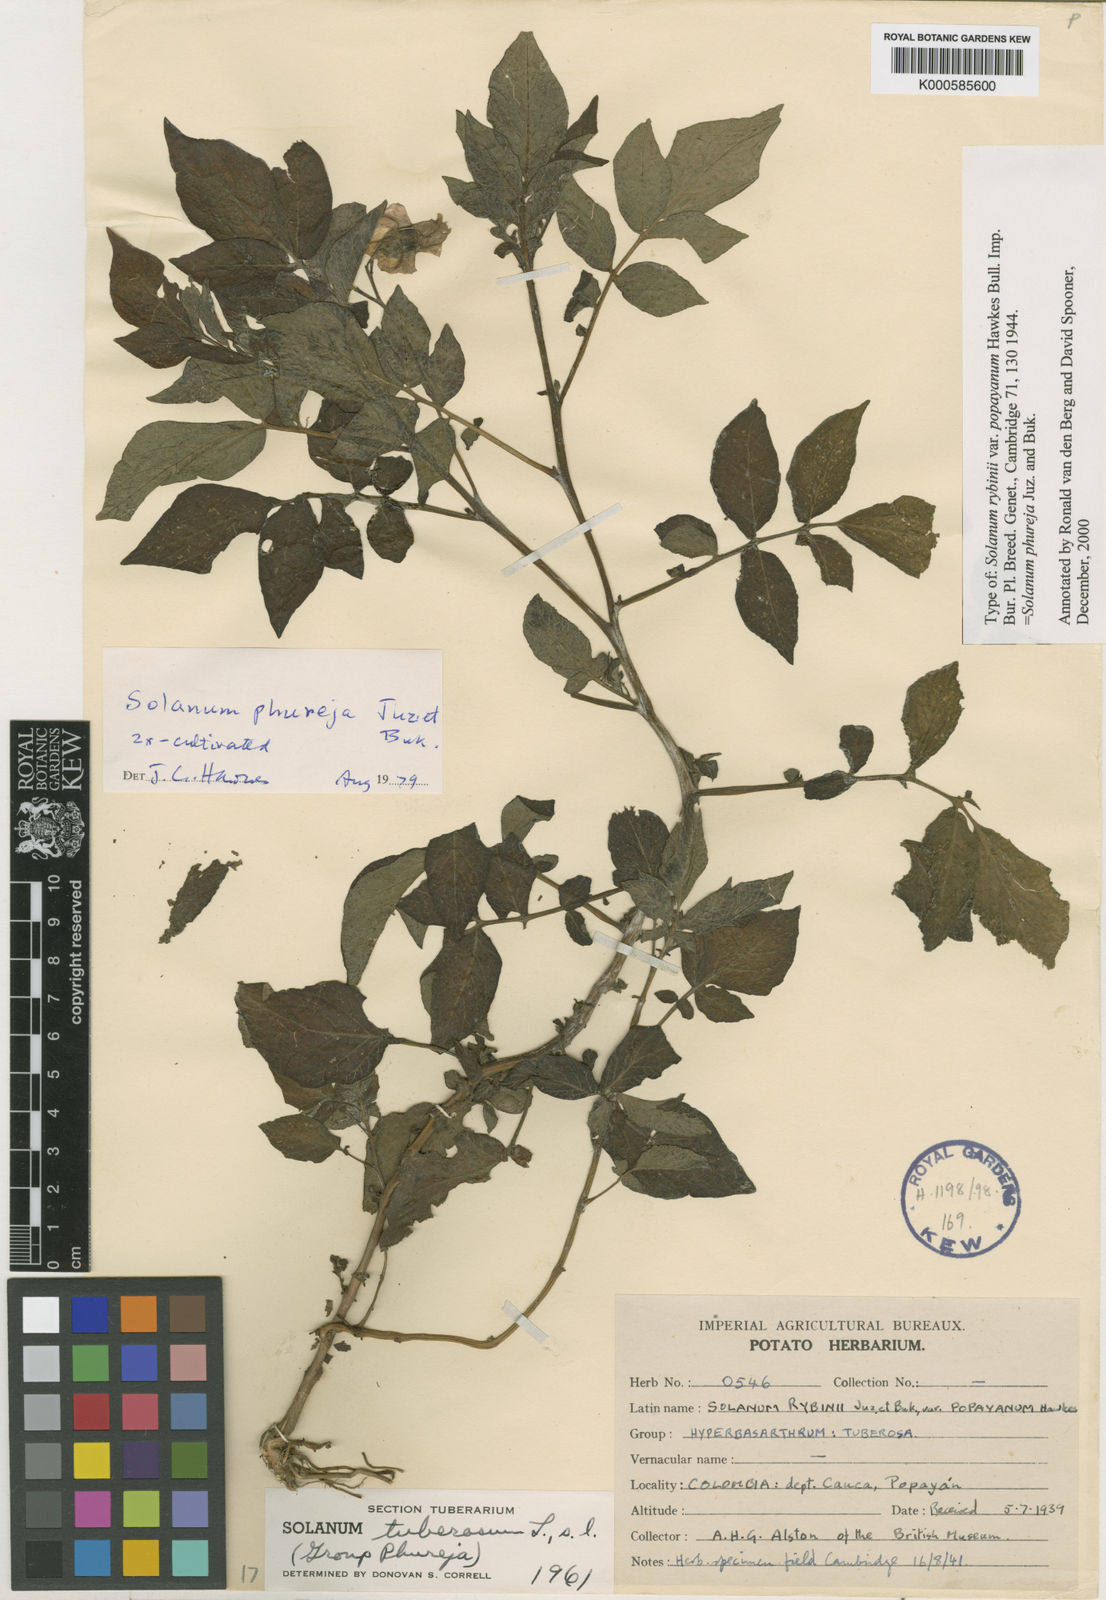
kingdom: Plantae
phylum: Tracheophyta
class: Magnoliopsida
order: Solanales
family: Solanaceae
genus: Solanum
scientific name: Solanum tuberosum
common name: Potato
